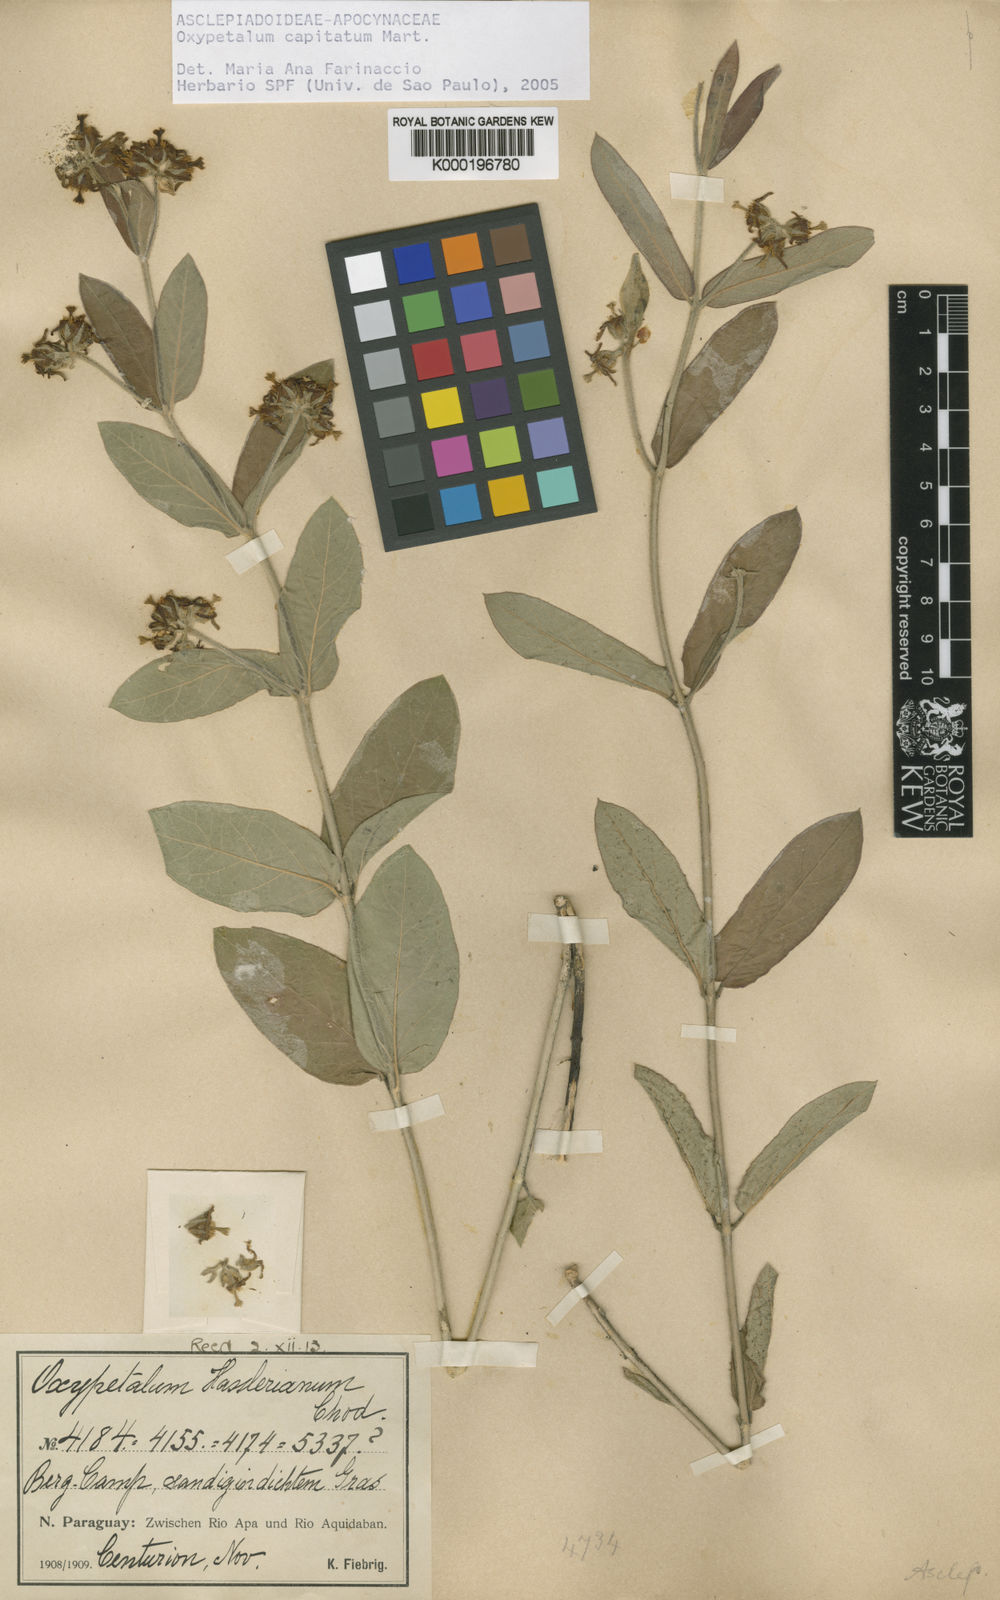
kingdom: Plantae
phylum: Tracheophyta
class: Magnoliopsida
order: Gentianales
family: Apocynaceae
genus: Oxypetalum
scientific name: Oxypetalum capitatum
